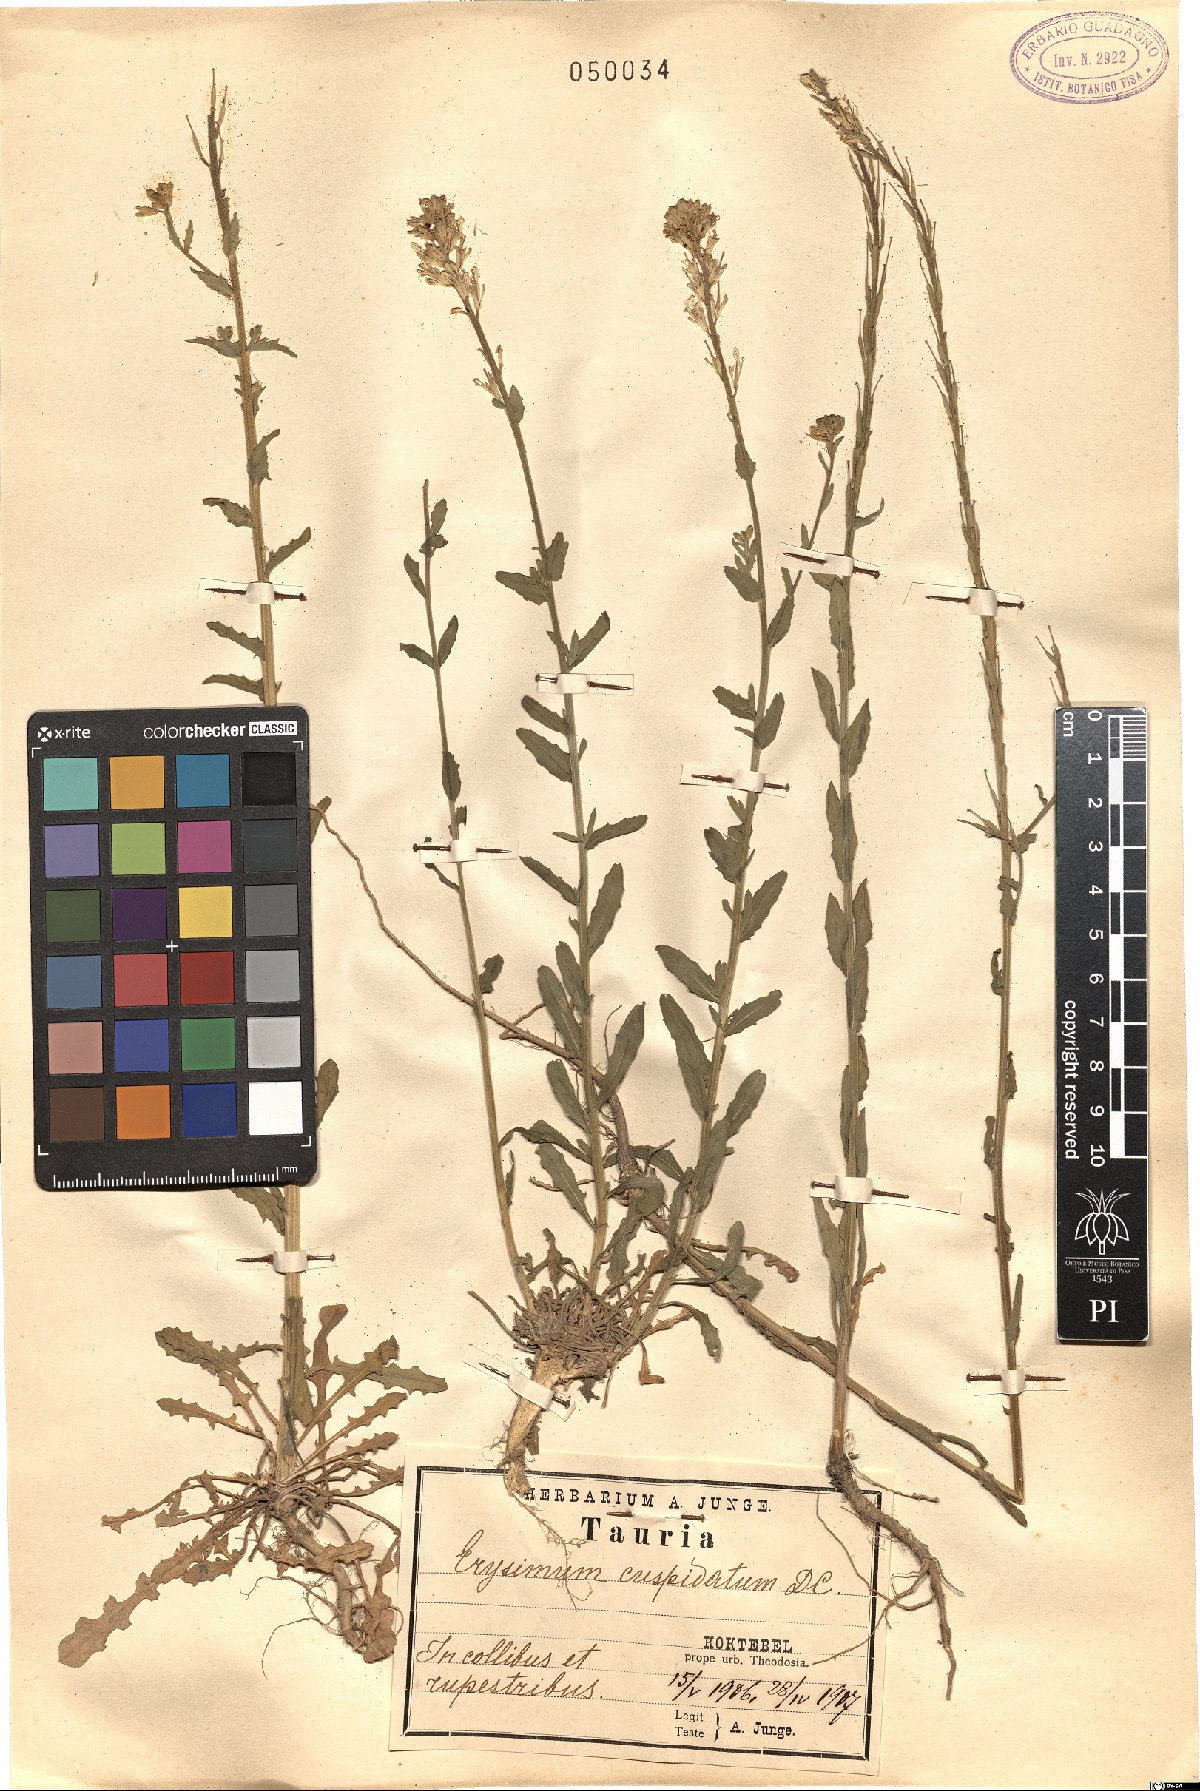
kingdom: Plantae
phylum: Tracheophyta
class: Magnoliopsida
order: Brassicales
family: Brassicaceae
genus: Erysimum
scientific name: Erysimum cuspidatum
